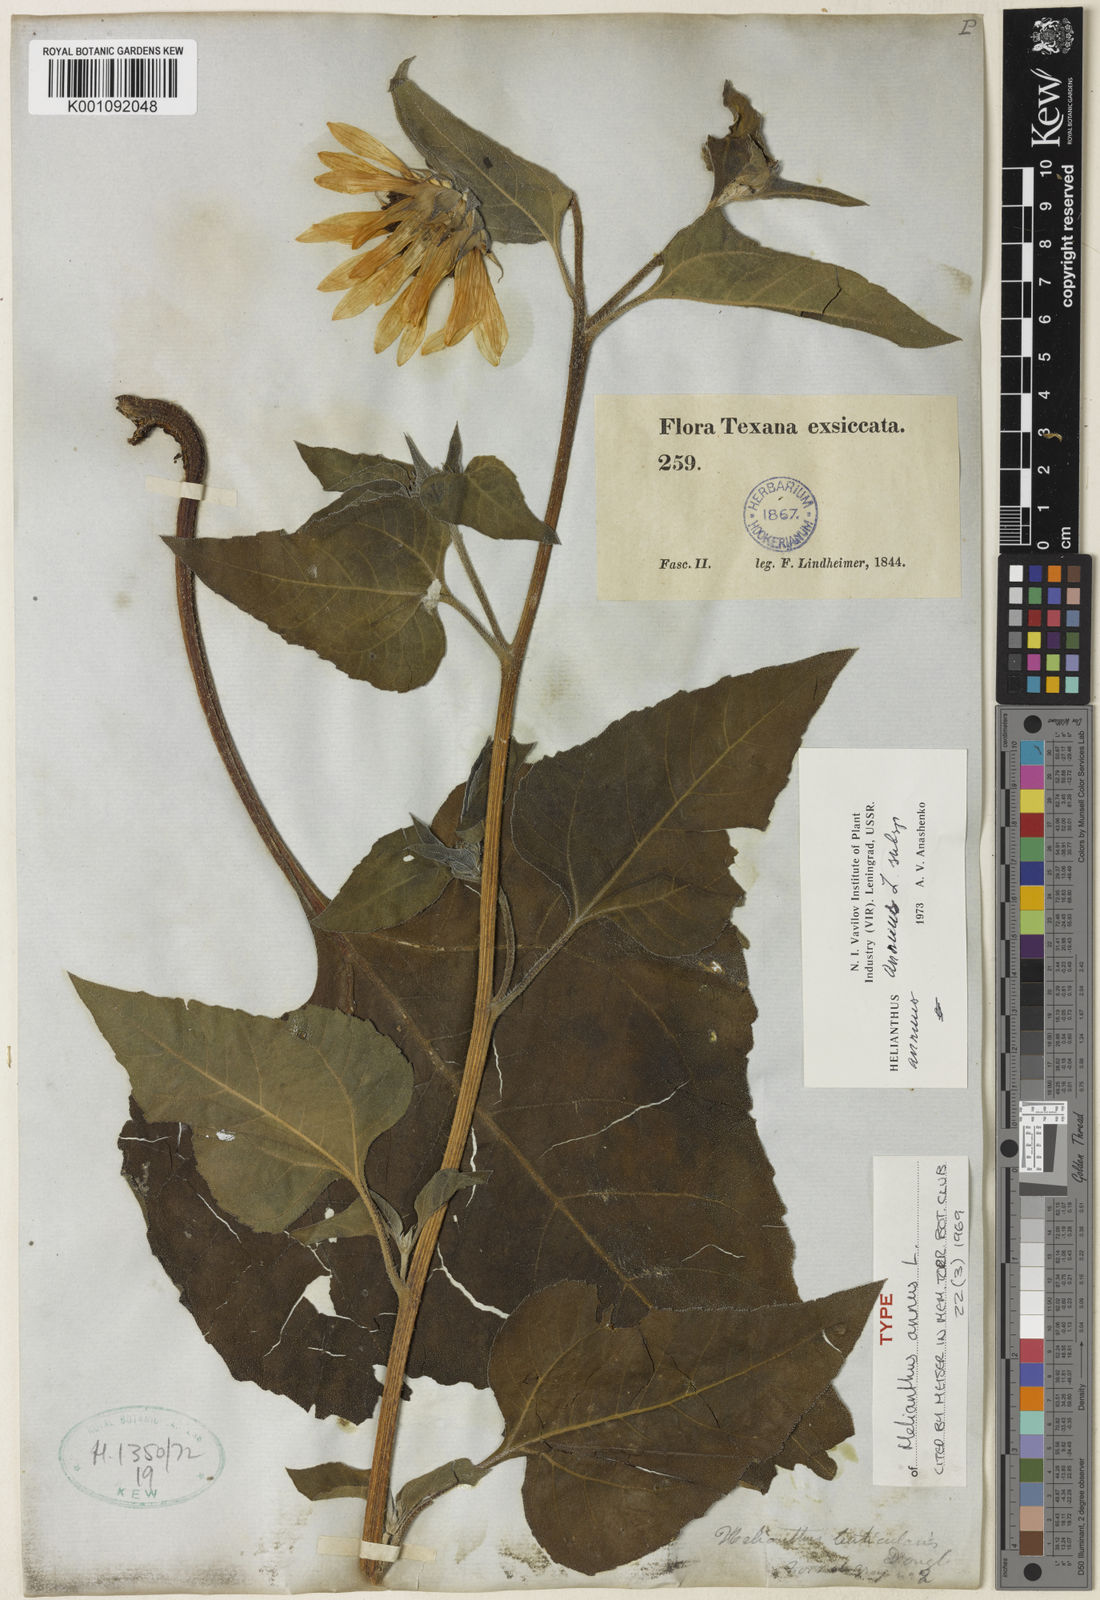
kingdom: Plantae
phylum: Tracheophyta
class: Magnoliopsida
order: Asterales
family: Asteraceae
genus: Helianthus
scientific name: Helianthus annuus
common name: Sunflower
